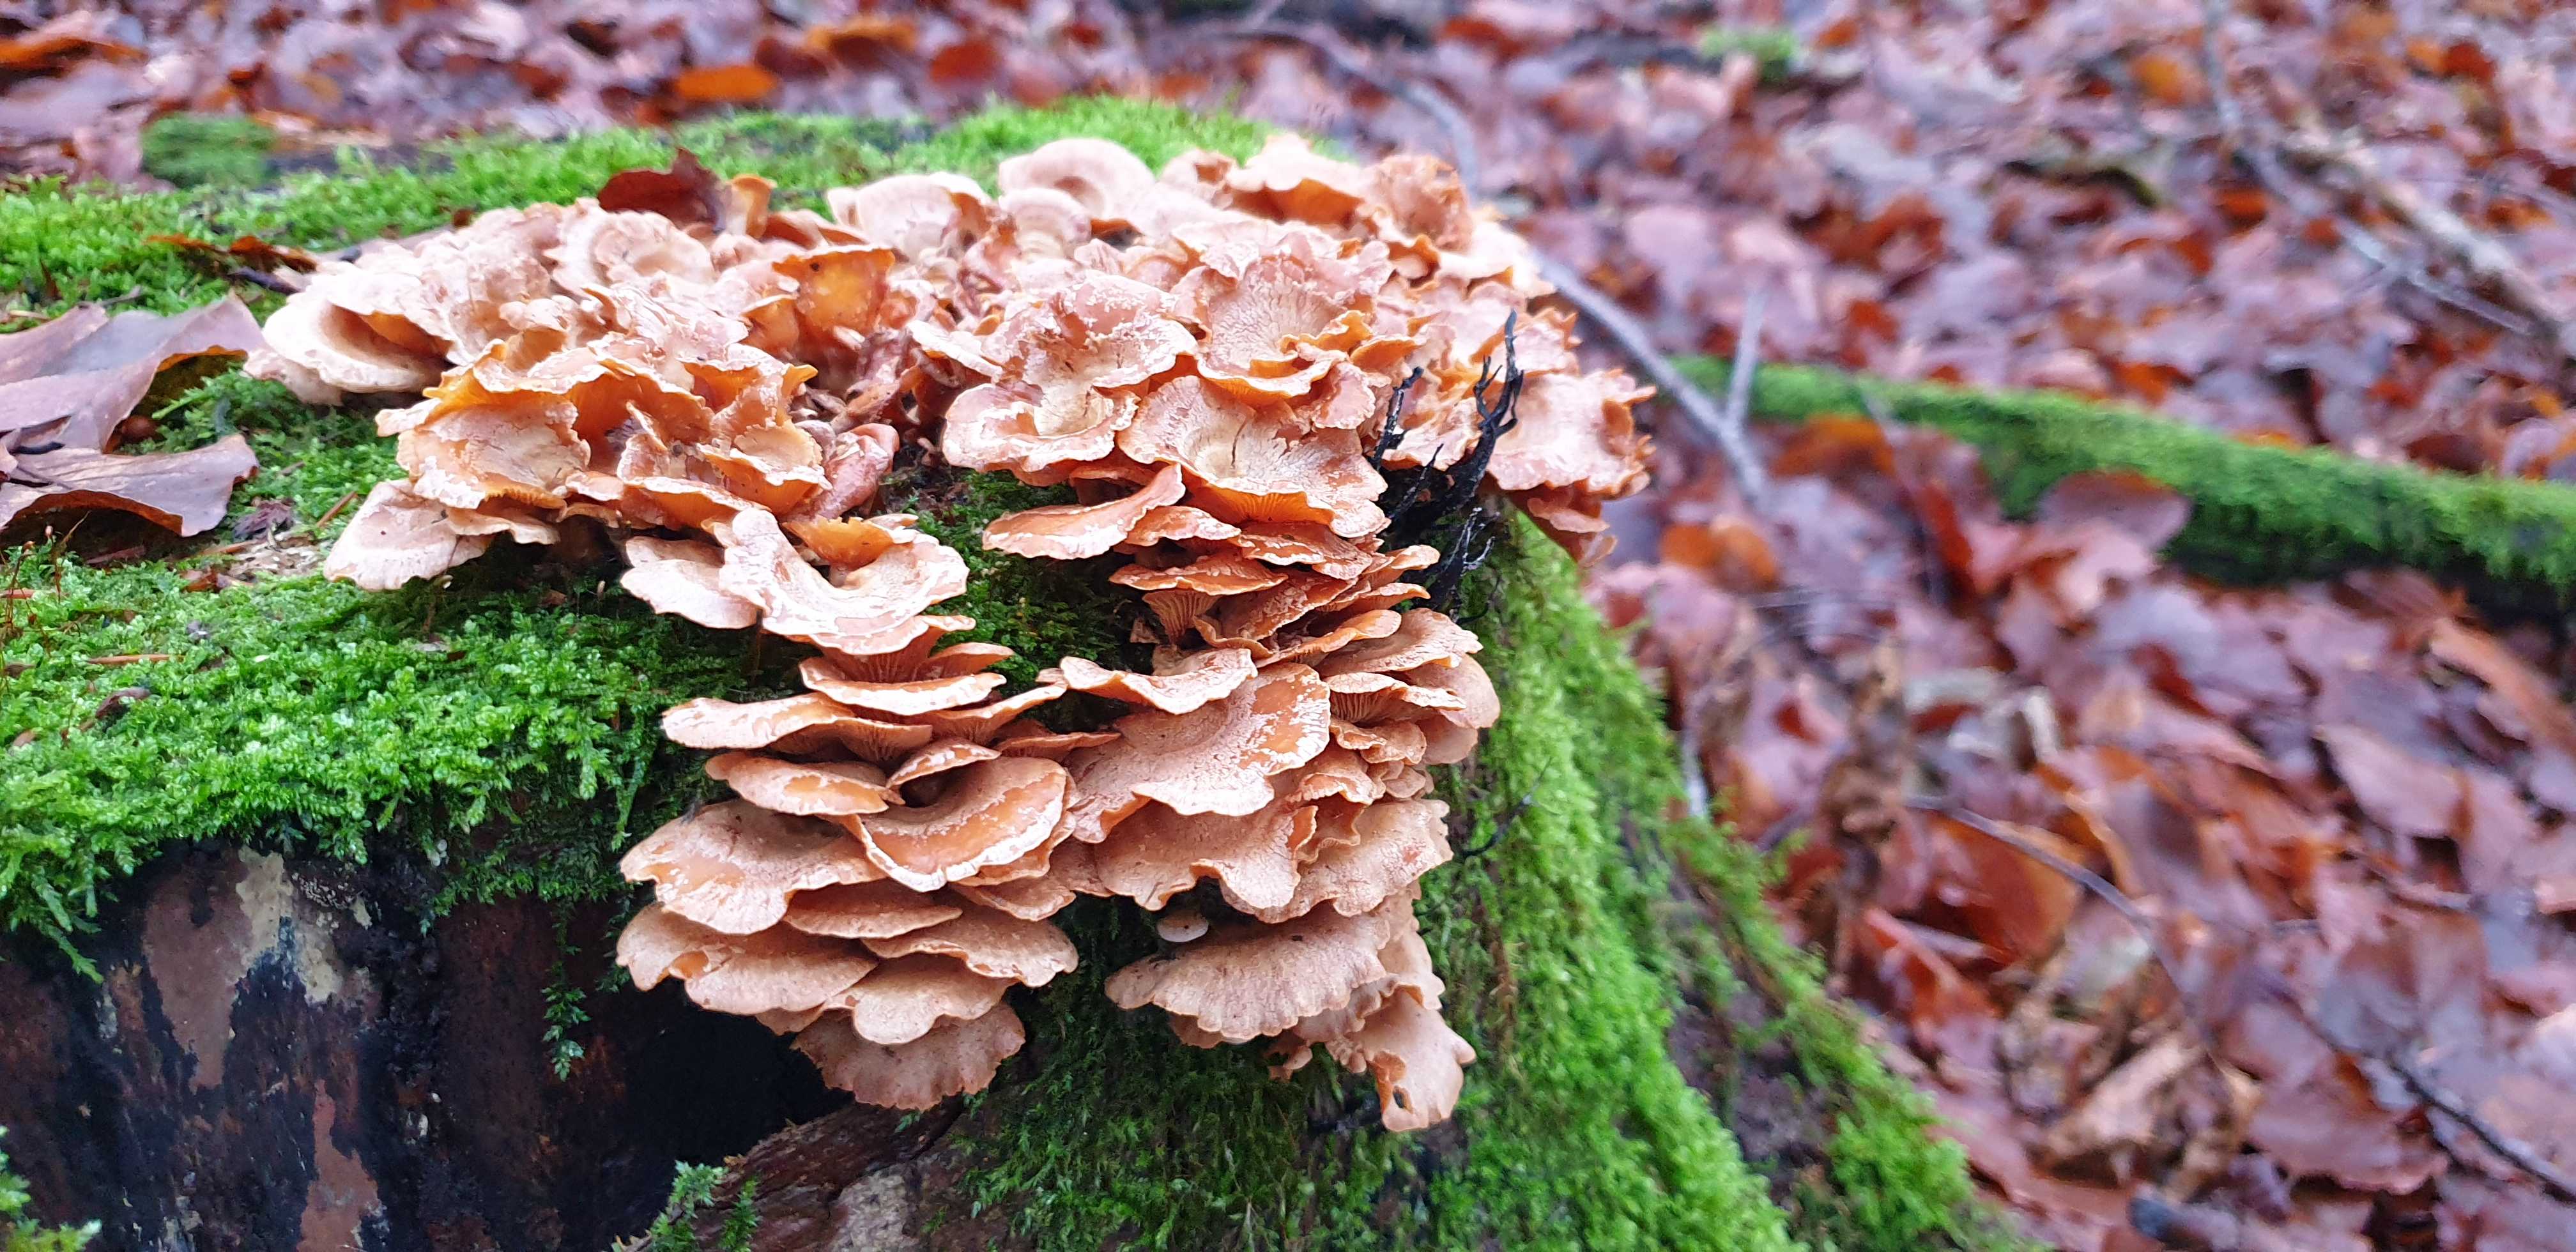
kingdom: Fungi
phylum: Basidiomycota
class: Agaricomycetes
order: Agaricales
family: Mycenaceae
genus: Panellus
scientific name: Panellus stipticus
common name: kliddet epaulethat
